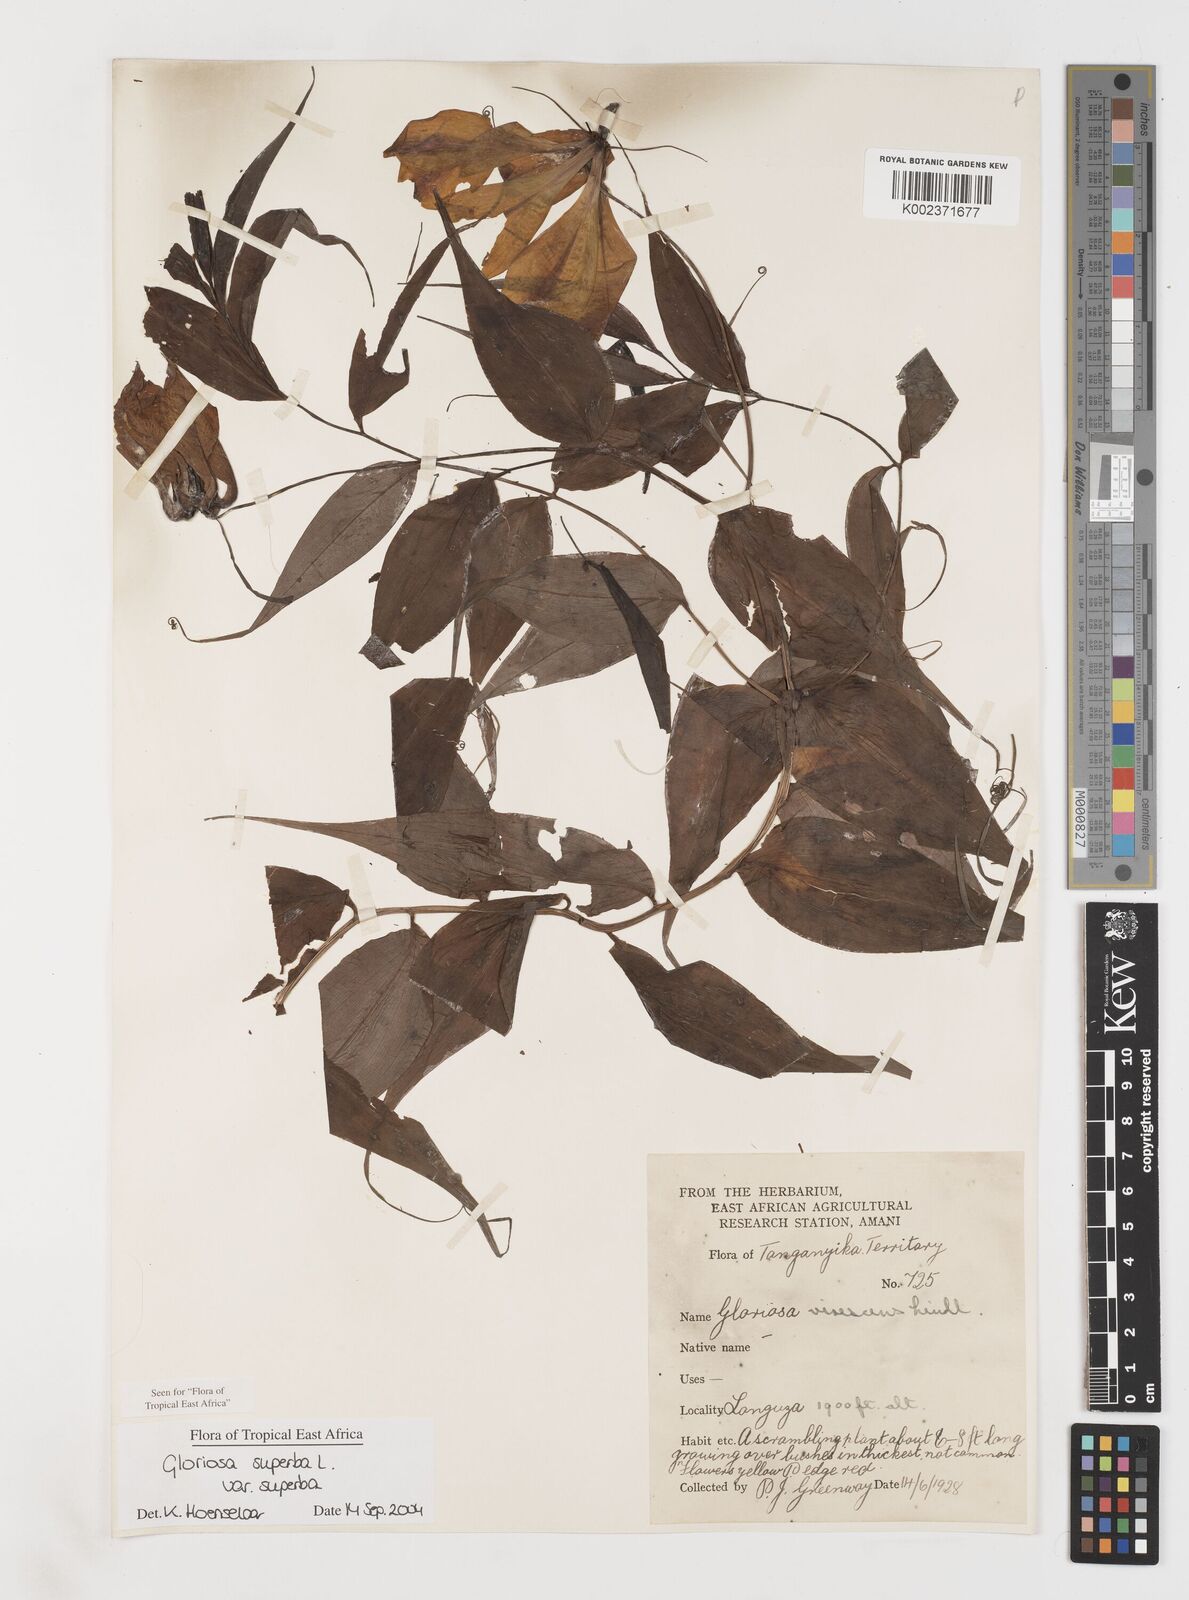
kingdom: Plantae
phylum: Tracheophyta
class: Liliopsida
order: Liliales
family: Colchicaceae
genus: Gloriosa
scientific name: Gloriosa simplex
